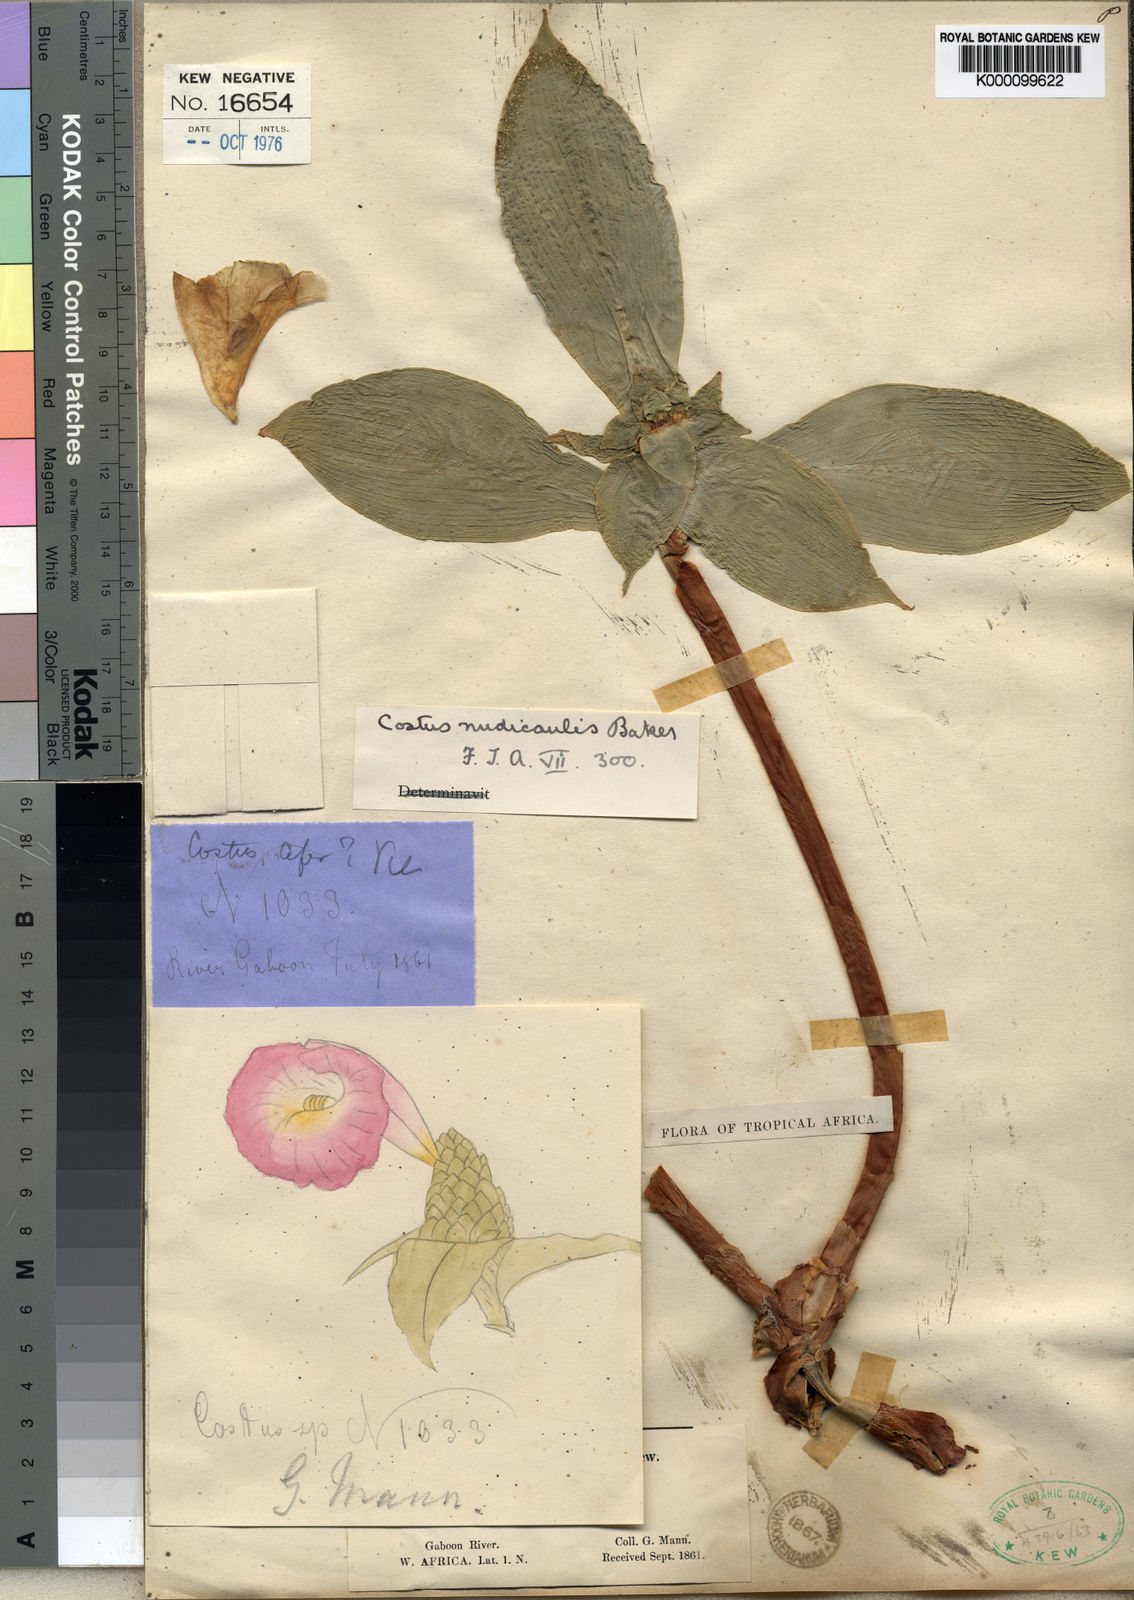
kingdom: Plantae
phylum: Tracheophyta
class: Liliopsida
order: Zingiberales
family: Costaceae
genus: Costus
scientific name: Costus phyllocephalus
